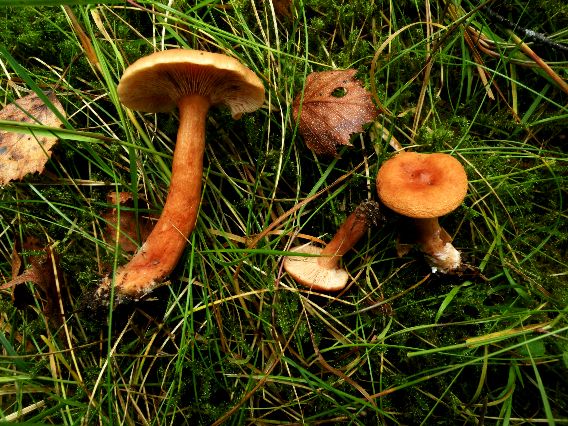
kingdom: Fungi
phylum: Basidiomycota
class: Agaricomycetes
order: Russulales
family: Russulaceae
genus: Lactarius
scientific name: Lactarius aurantiacus
